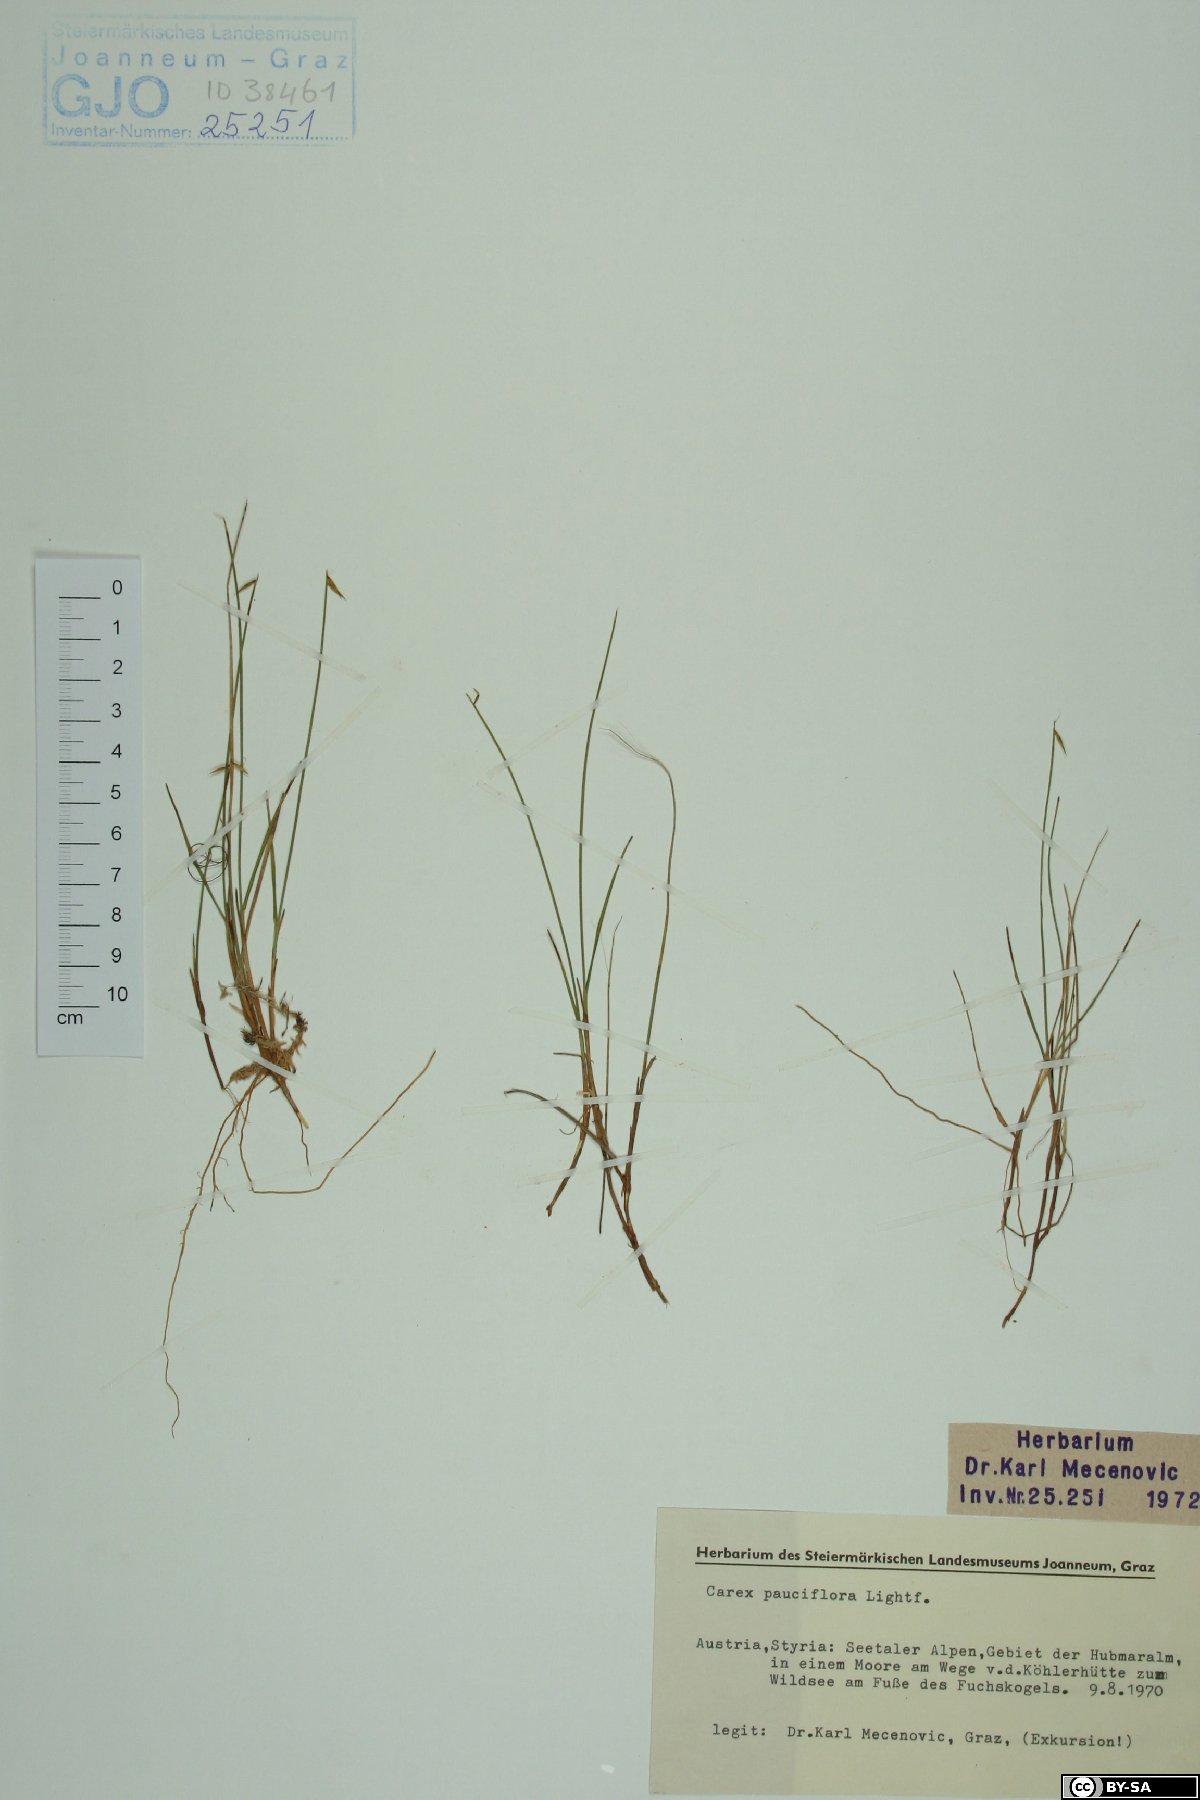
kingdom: Plantae
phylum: Tracheophyta
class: Liliopsida
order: Poales
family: Cyperaceae
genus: Carex
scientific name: Carex pauciflora
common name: Few-flowered sedge
